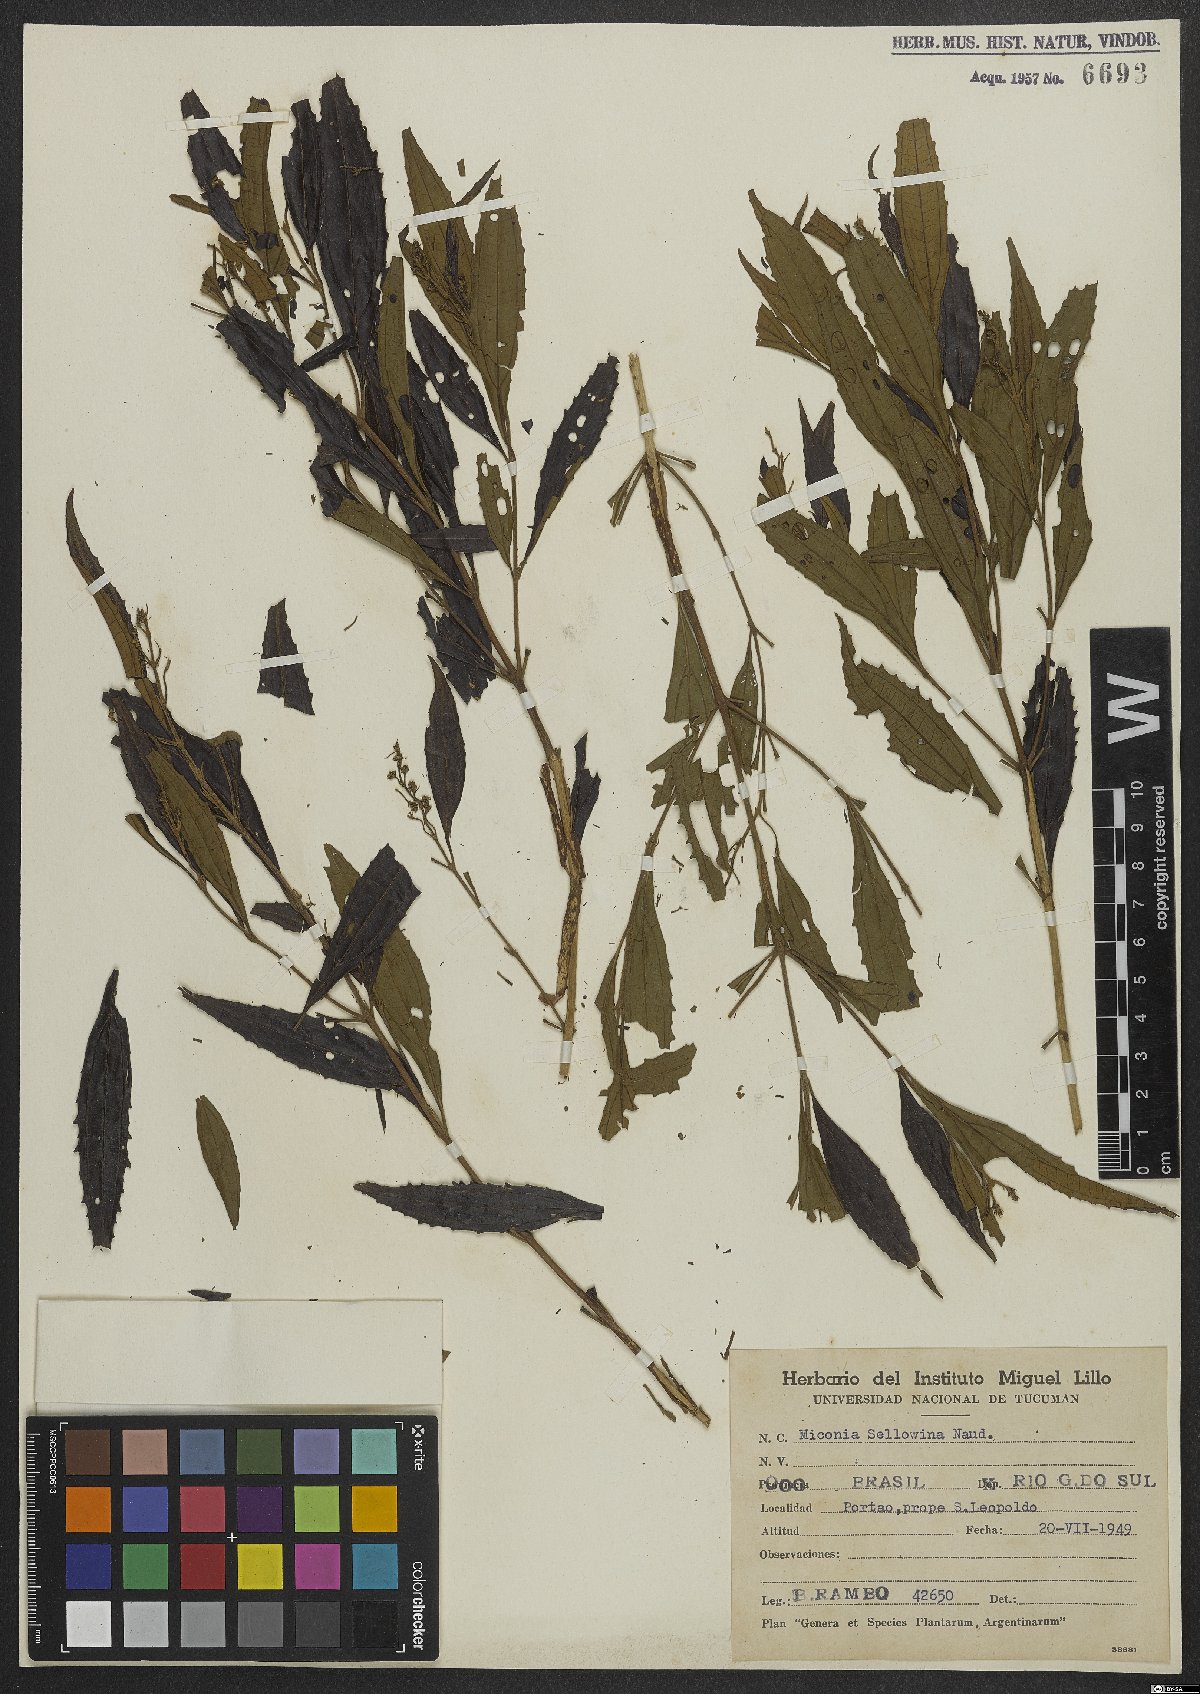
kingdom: Plantae
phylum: Tracheophyta
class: Magnoliopsida
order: Myrtales
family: Melastomataceae
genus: Miconia
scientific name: Miconia sellowiana
